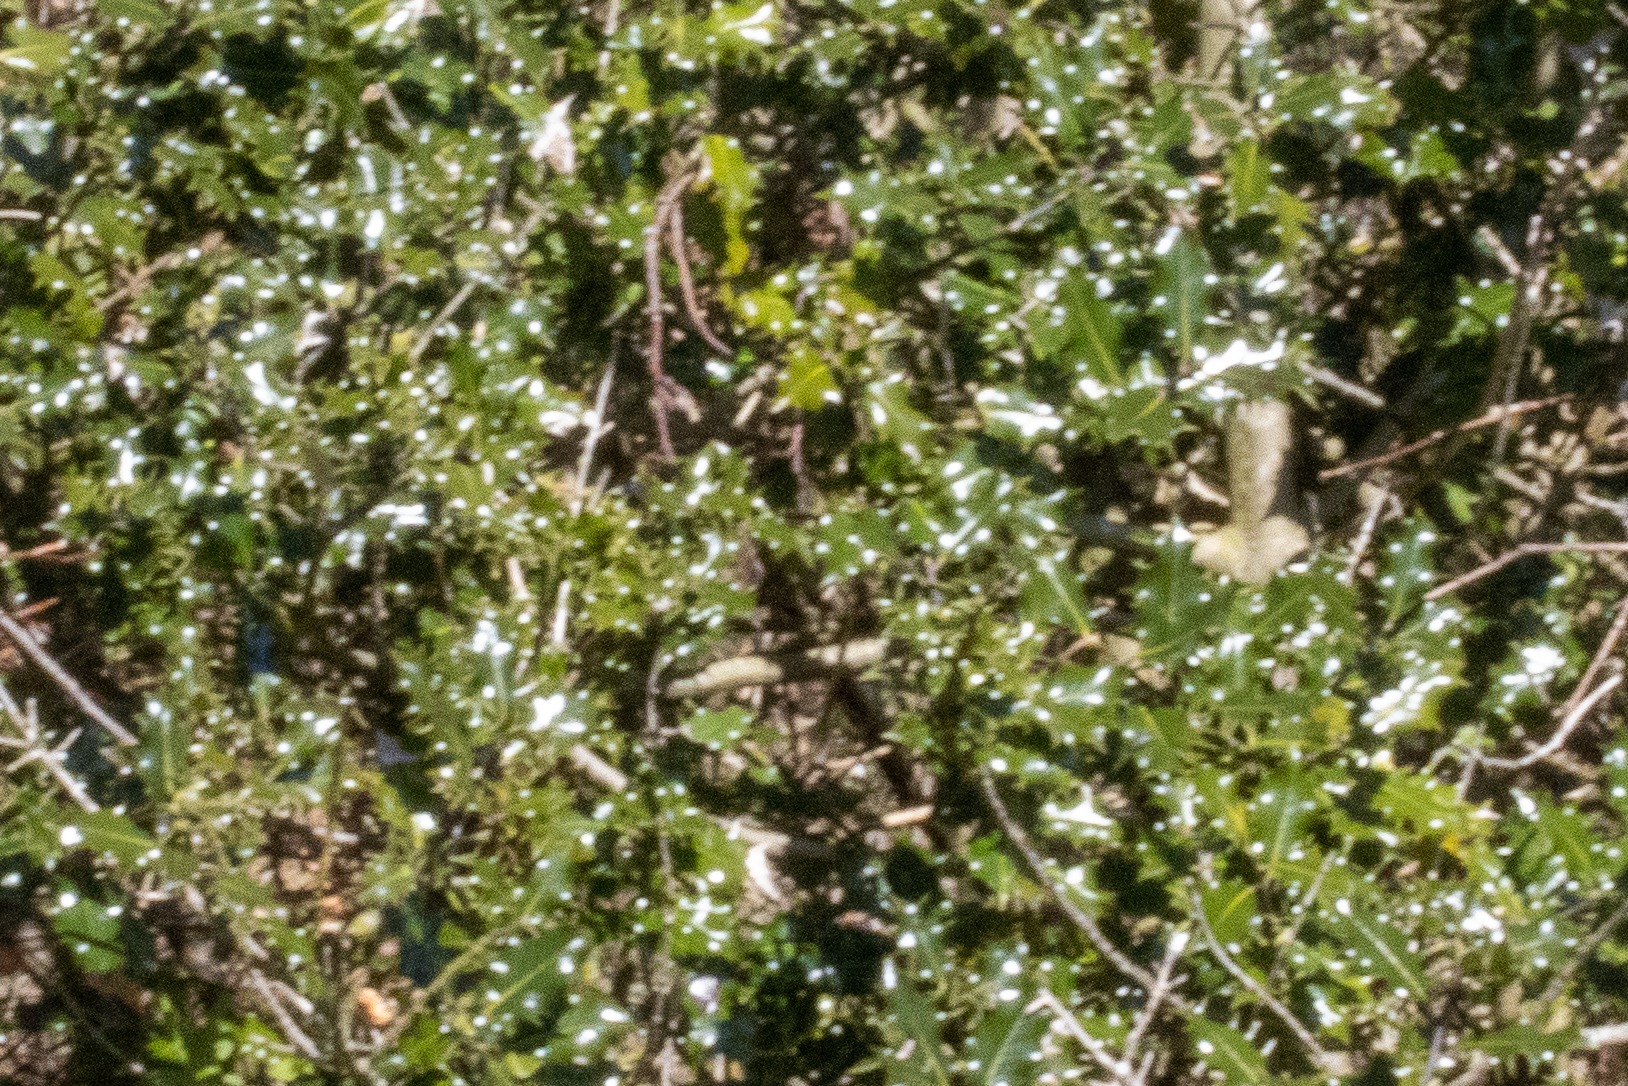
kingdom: Plantae
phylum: Tracheophyta
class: Magnoliopsida
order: Aquifoliales
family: Aquifoliaceae
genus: Ilex
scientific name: Ilex aquifolium
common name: Kristtorn
